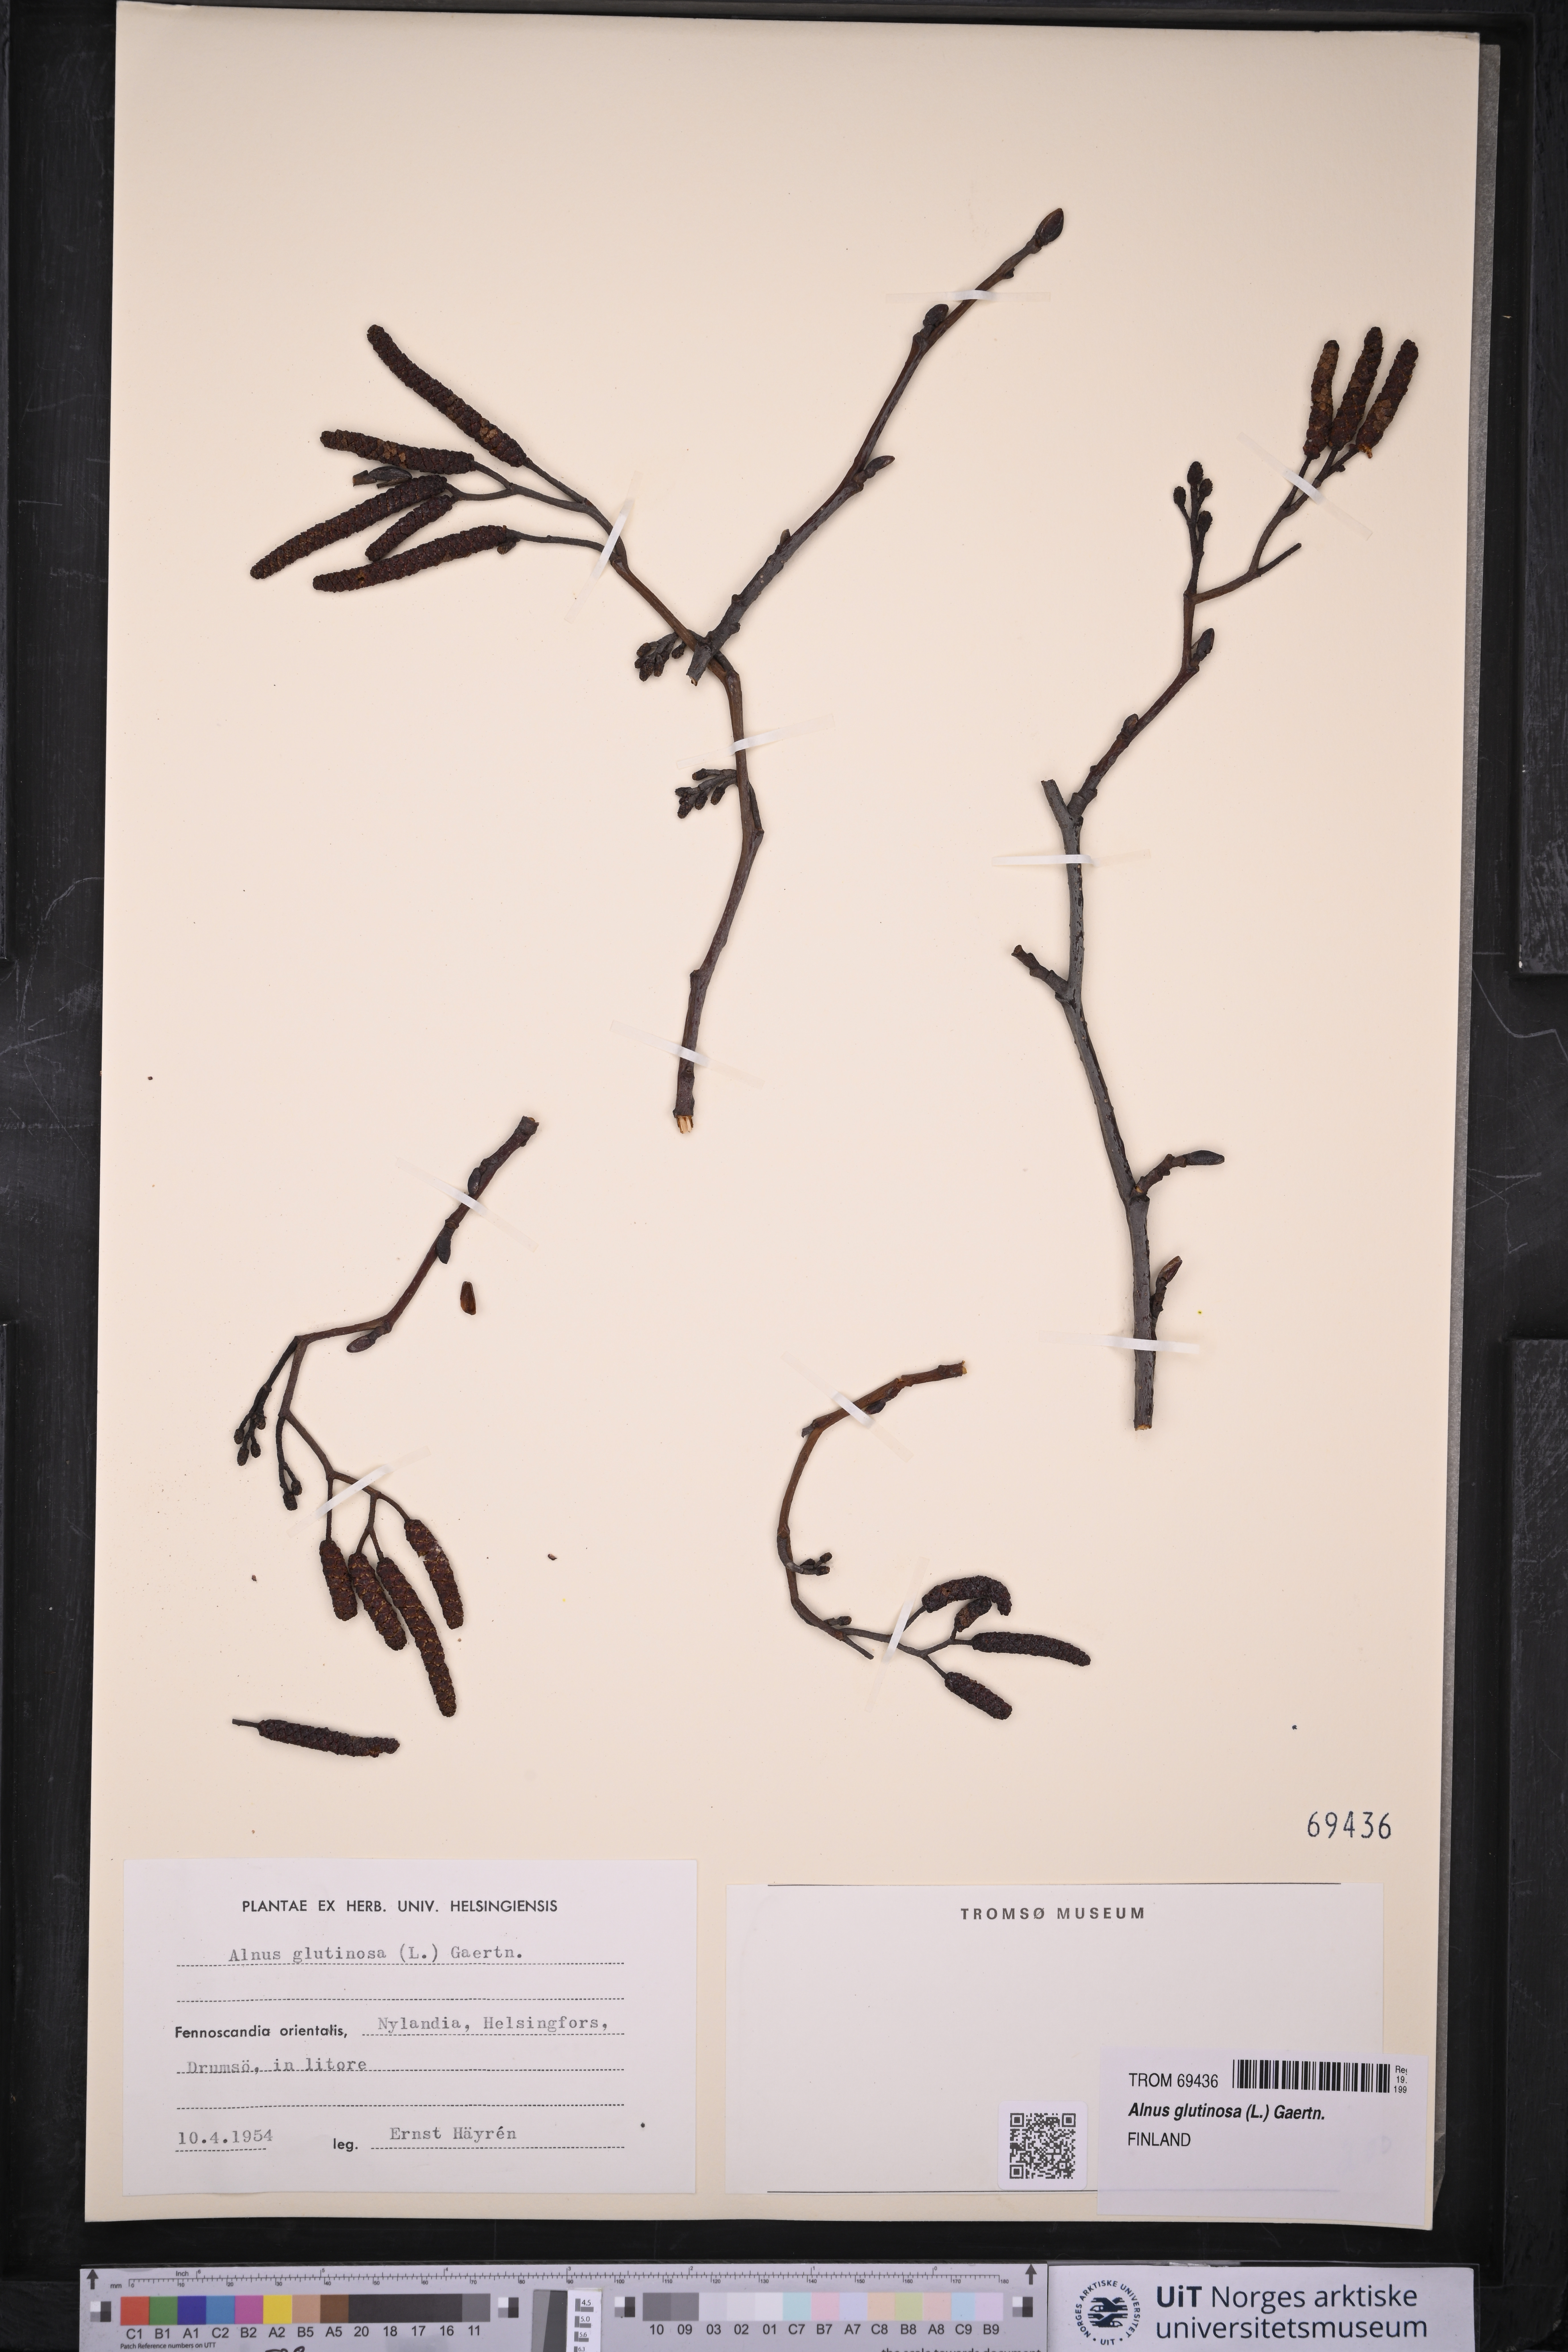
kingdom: Plantae
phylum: Tracheophyta
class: Magnoliopsida
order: Fagales
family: Betulaceae
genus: Alnus
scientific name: Alnus glutinosa
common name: Black alder
